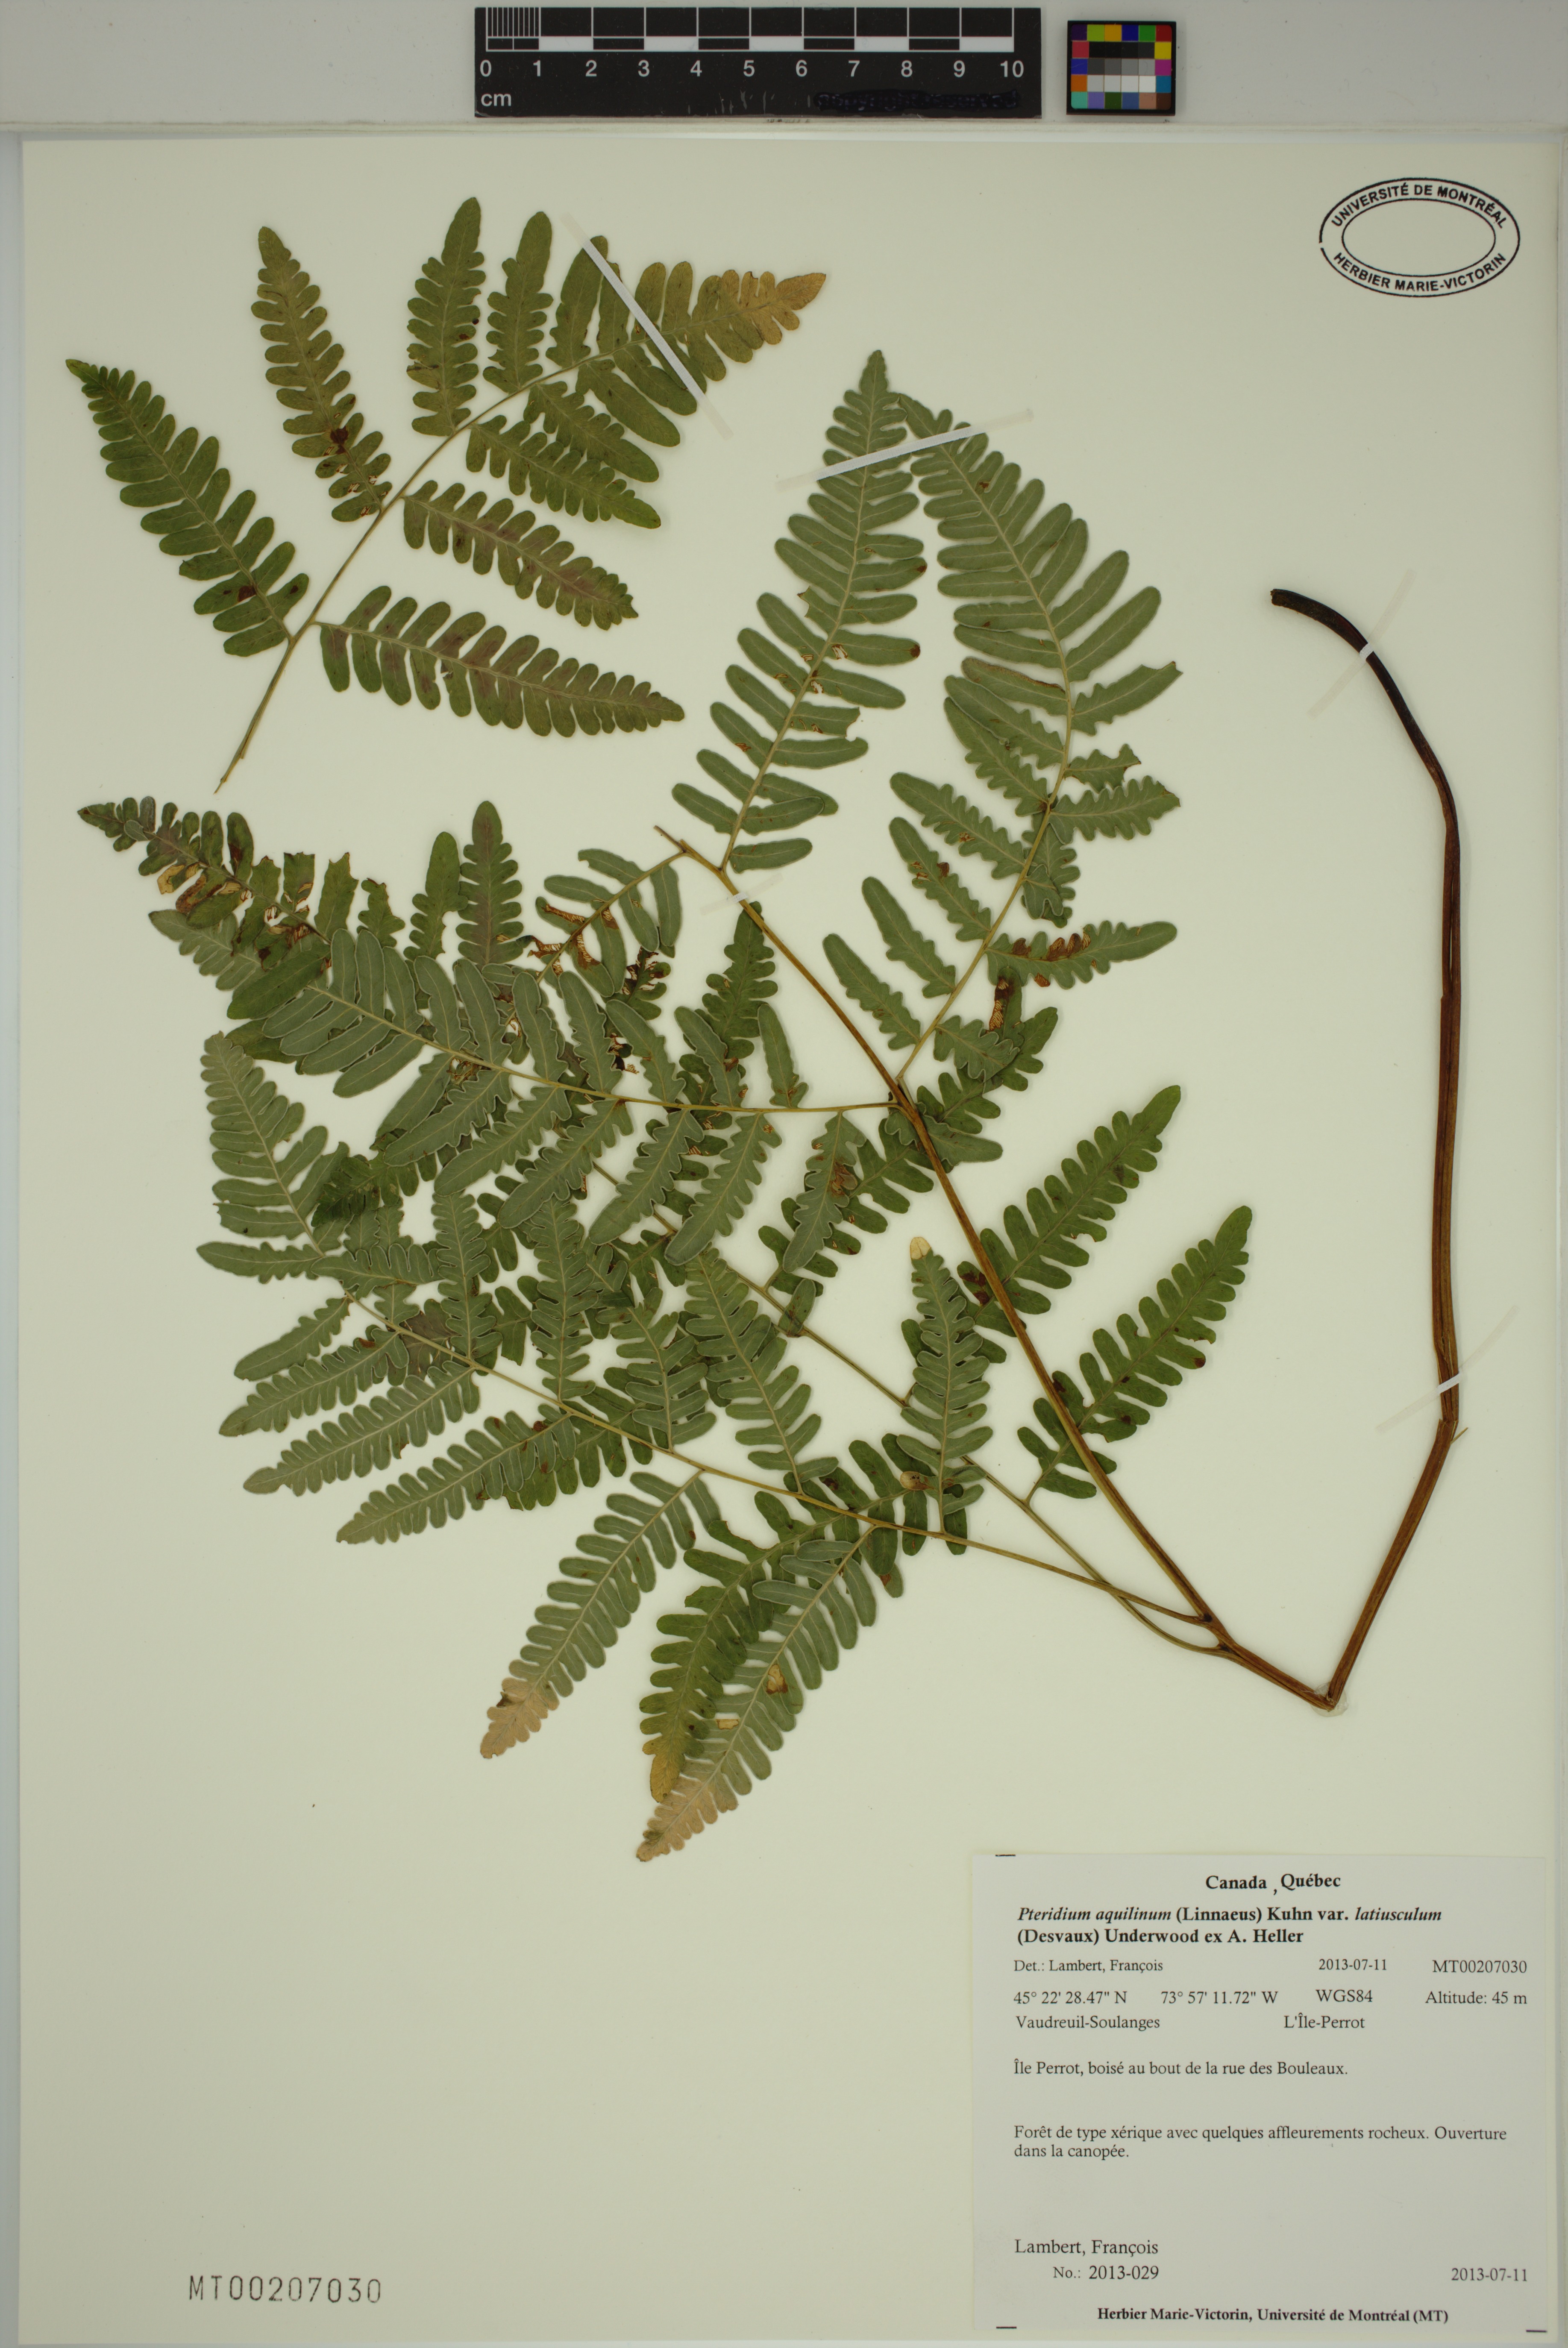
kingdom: Plantae
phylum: Tracheophyta
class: Polypodiopsida
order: Polypodiales
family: Dennstaedtiaceae
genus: Pteridium
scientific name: Pteridium aquilinum
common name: Bracken
